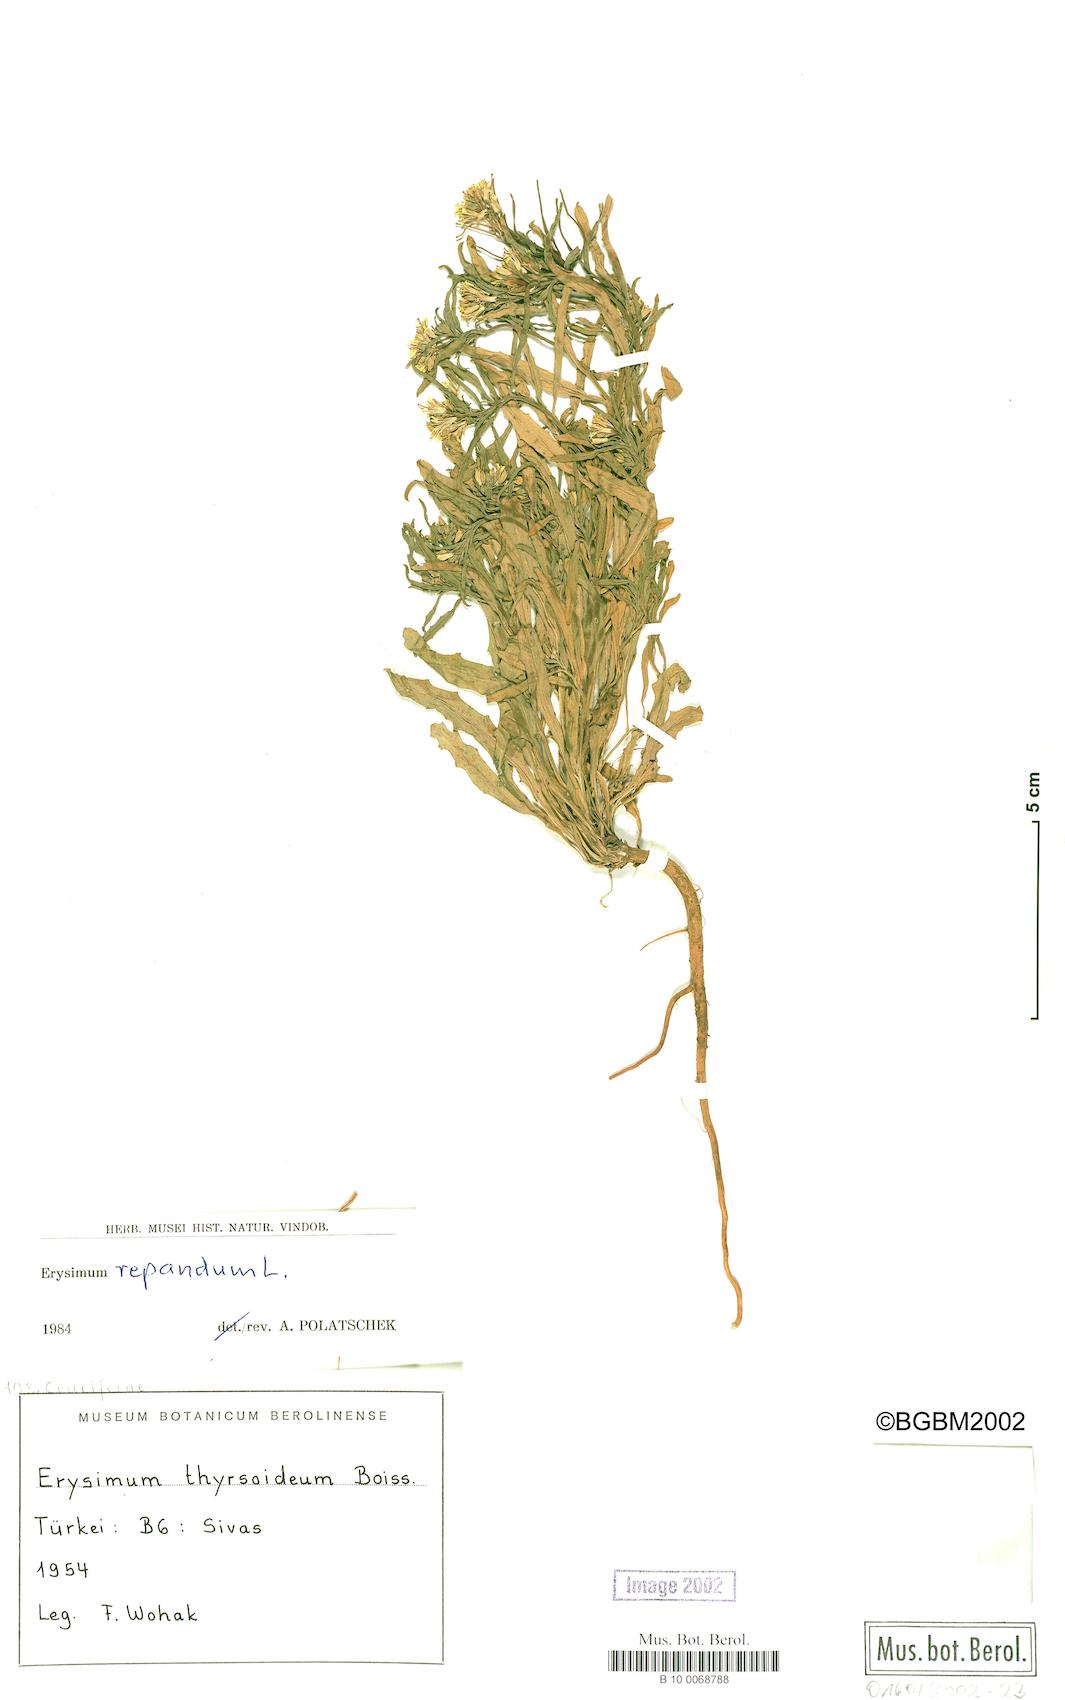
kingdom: Plantae
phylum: Tracheophyta
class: Magnoliopsida
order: Brassicales
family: Brassicaceae
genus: Erysimum
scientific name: Erysimum repandum
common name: Spreading wallflower
